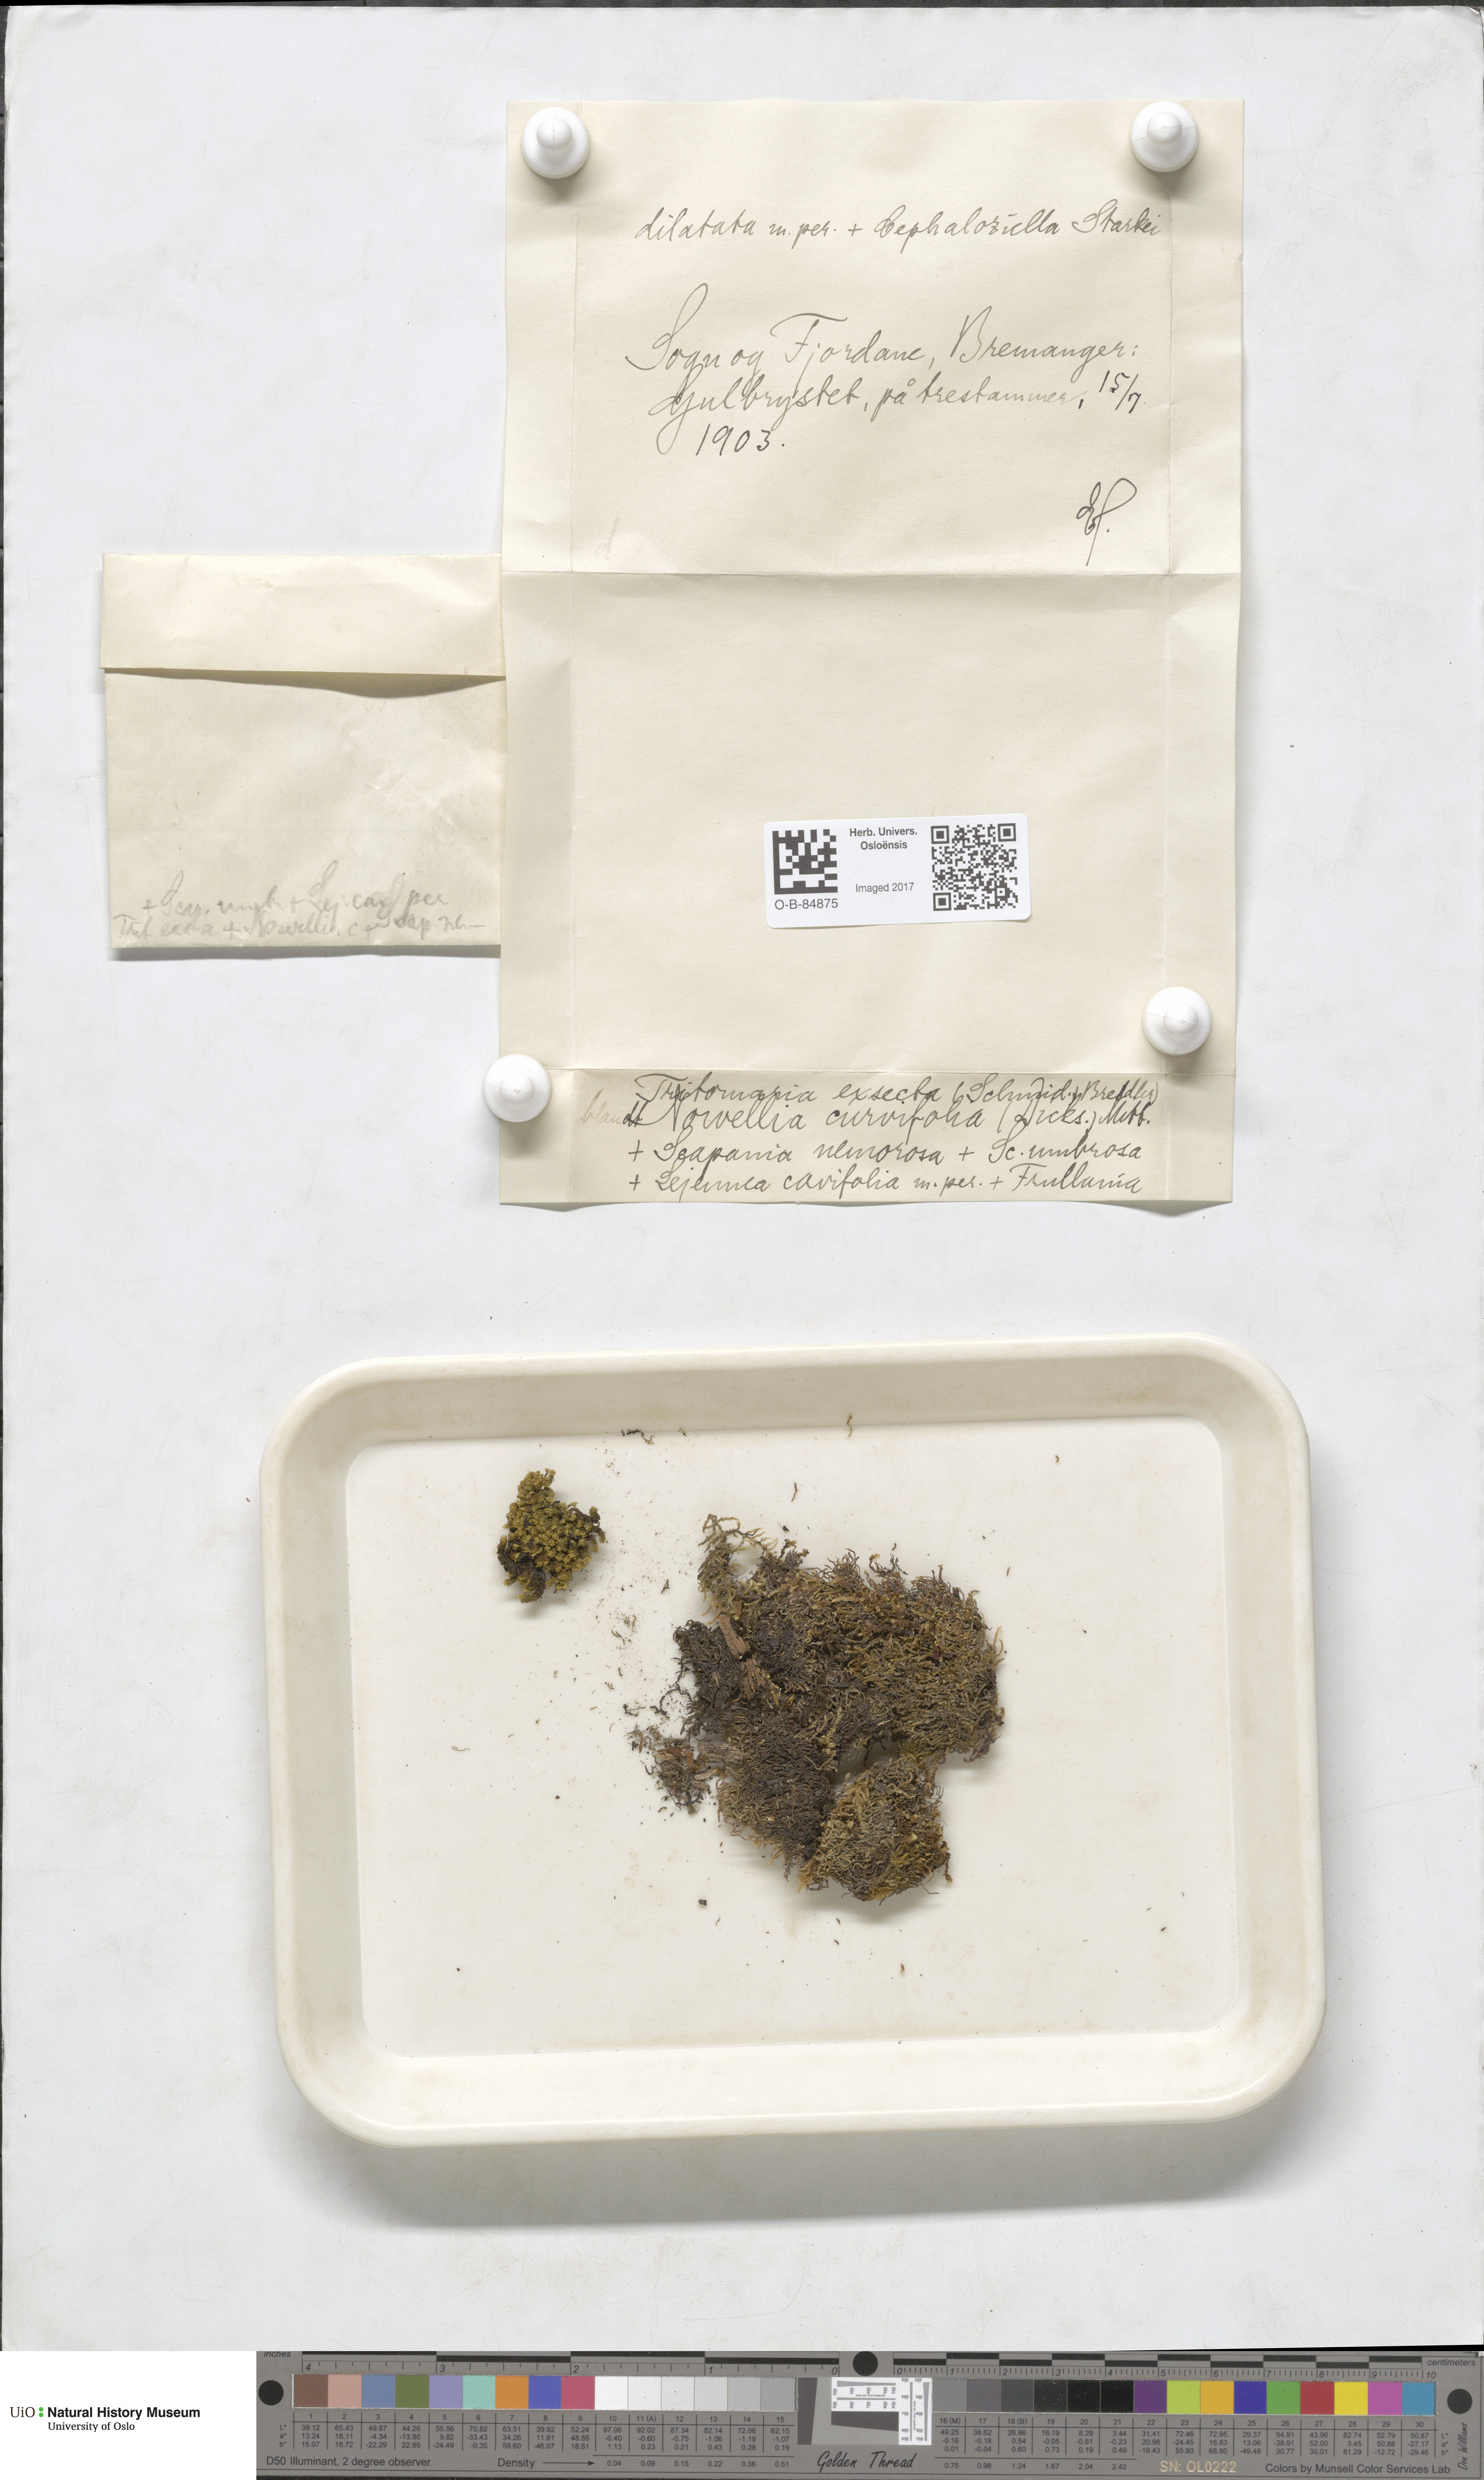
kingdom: Plantae
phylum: Marchantiophyta
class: Jungermanniopsida
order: Jungermanniales
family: Lophoziaceae
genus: Tritomaria
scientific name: Tritomaria exsecta
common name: Cut notchwort
